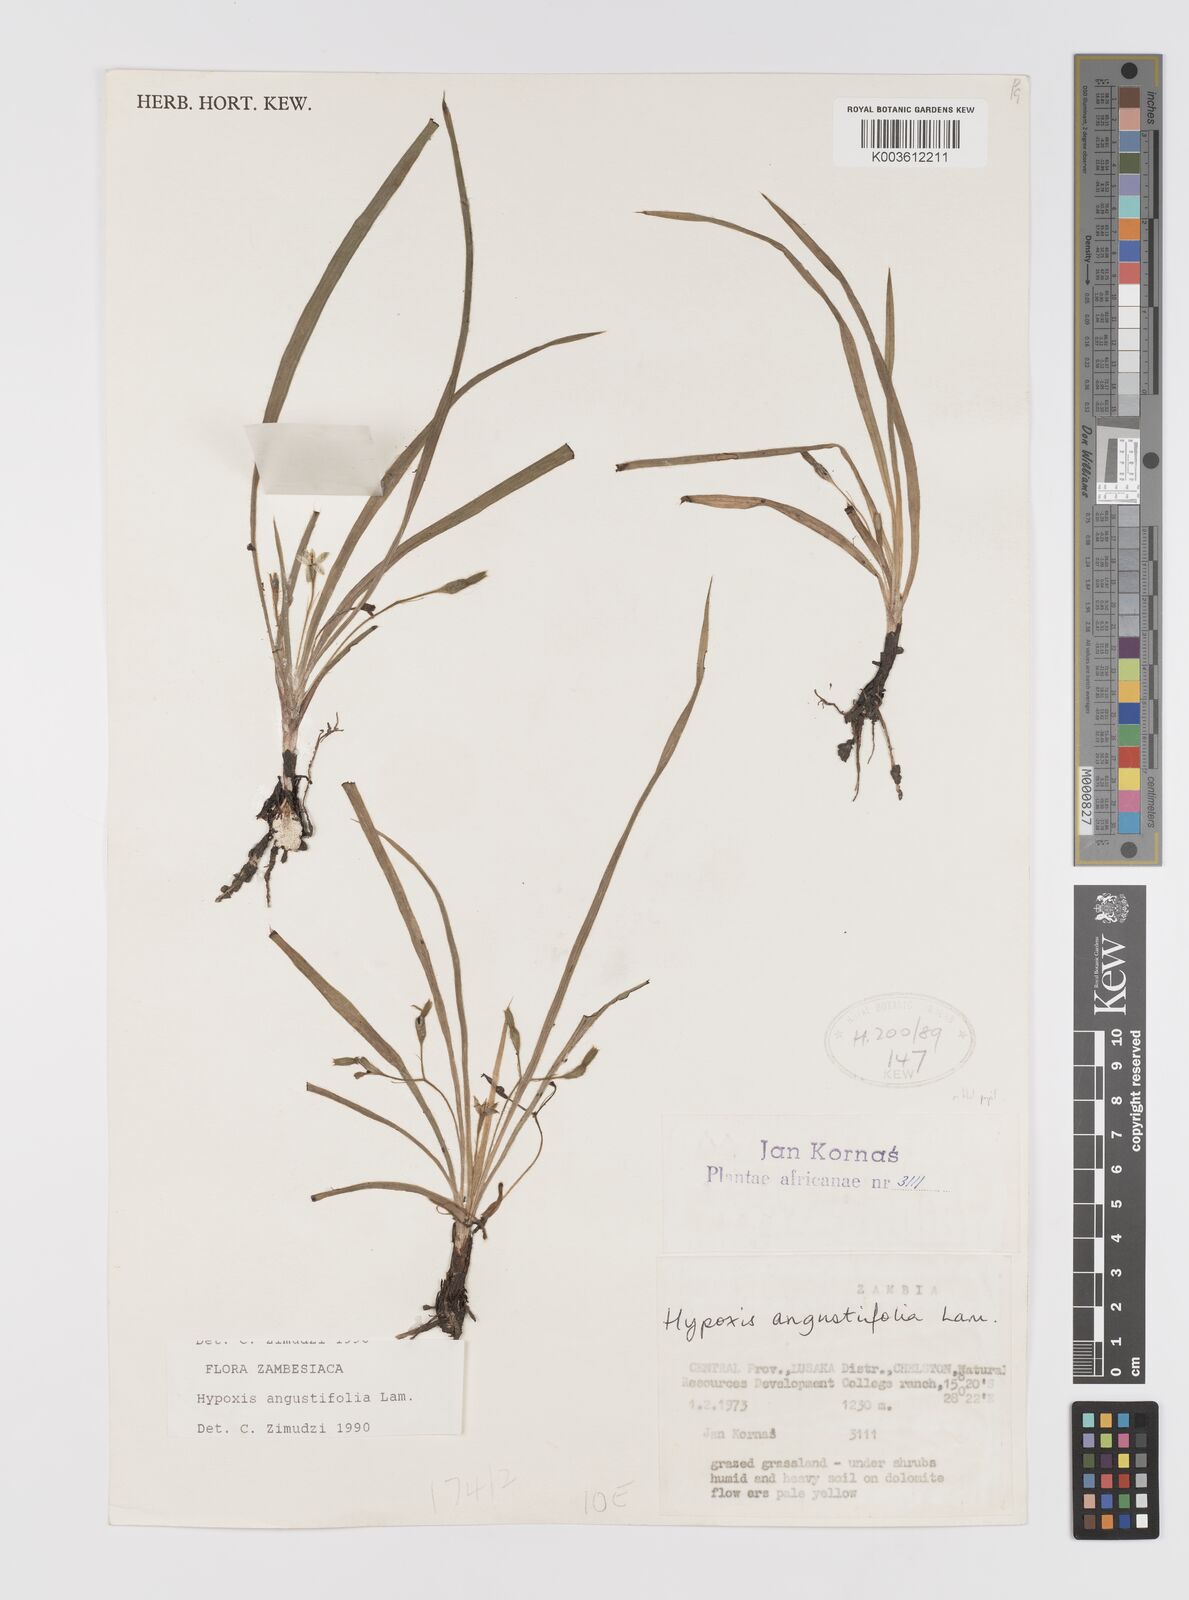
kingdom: Plantae
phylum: Tracheophyta
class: Liliopsida
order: Asparagales
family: Hypoxidaceae
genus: Hypoxis
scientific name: Hypoxis angustifolia
